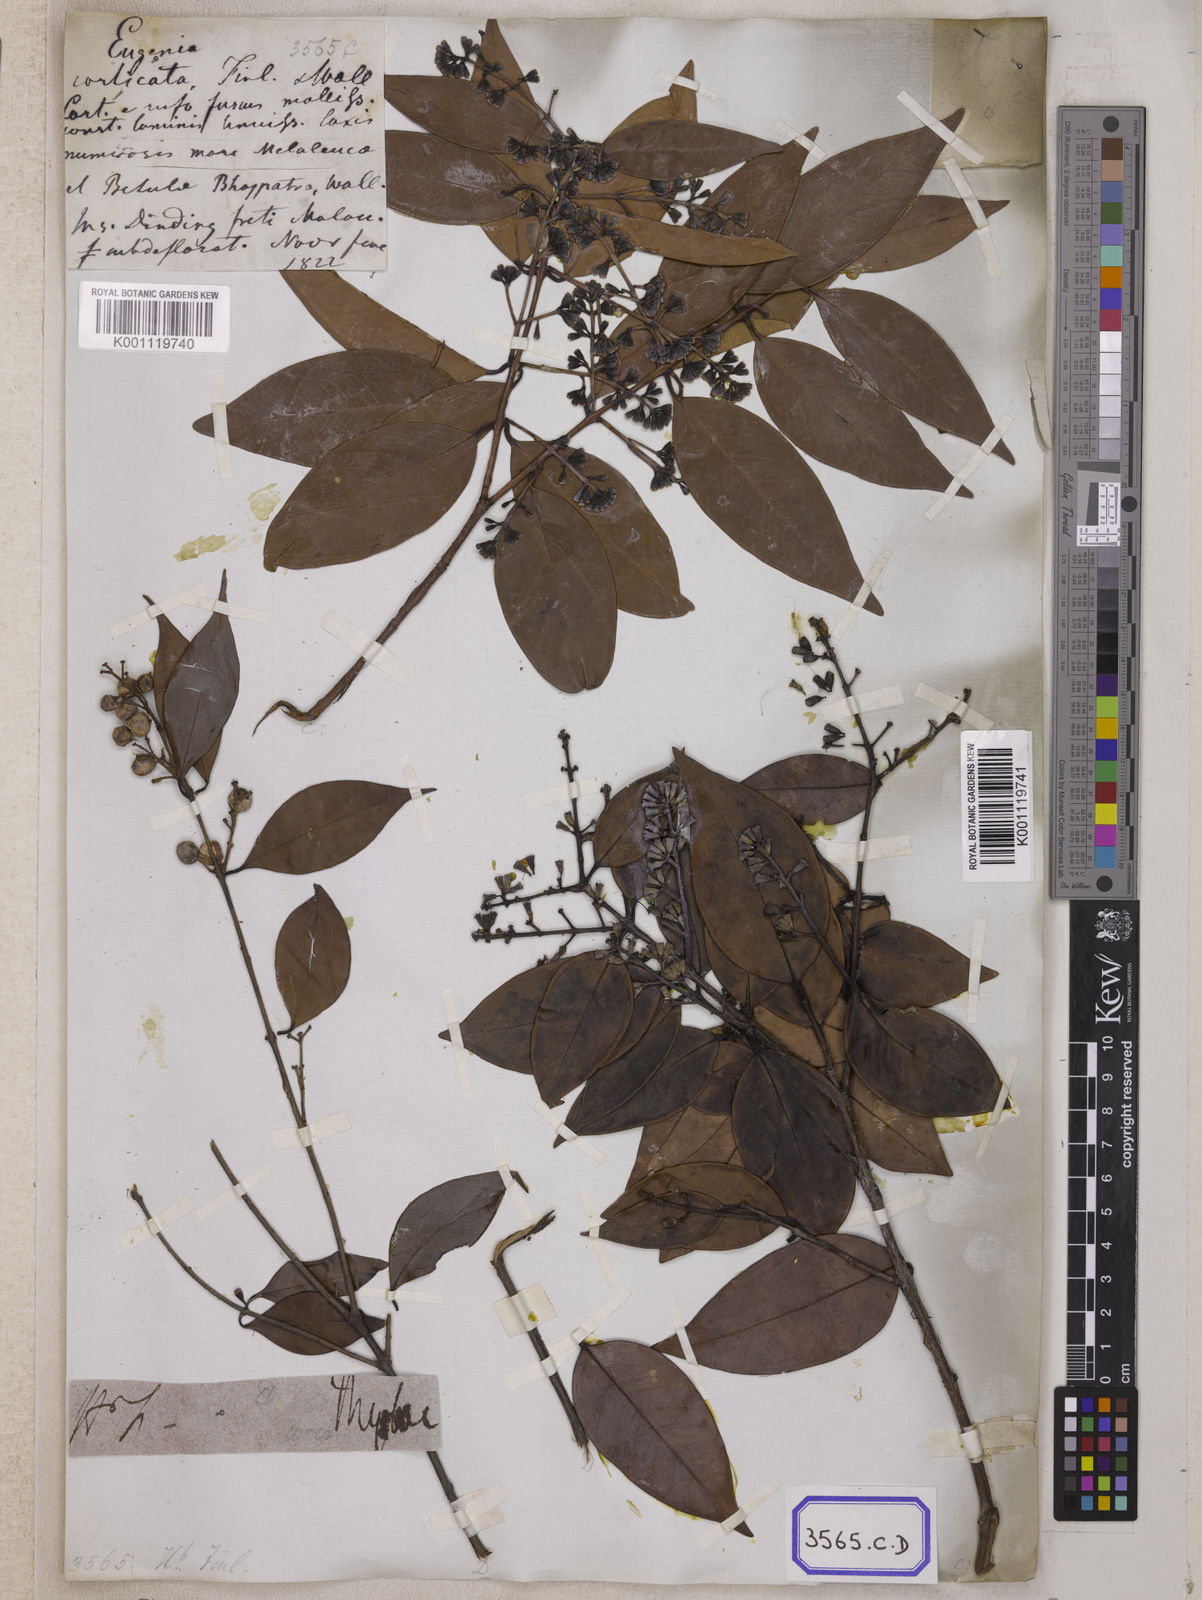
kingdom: Plantae
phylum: Tracheophyta
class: Magnoliopsida
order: Myrtales
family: Myrtaceae
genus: Syzygium
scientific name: Syzygium
